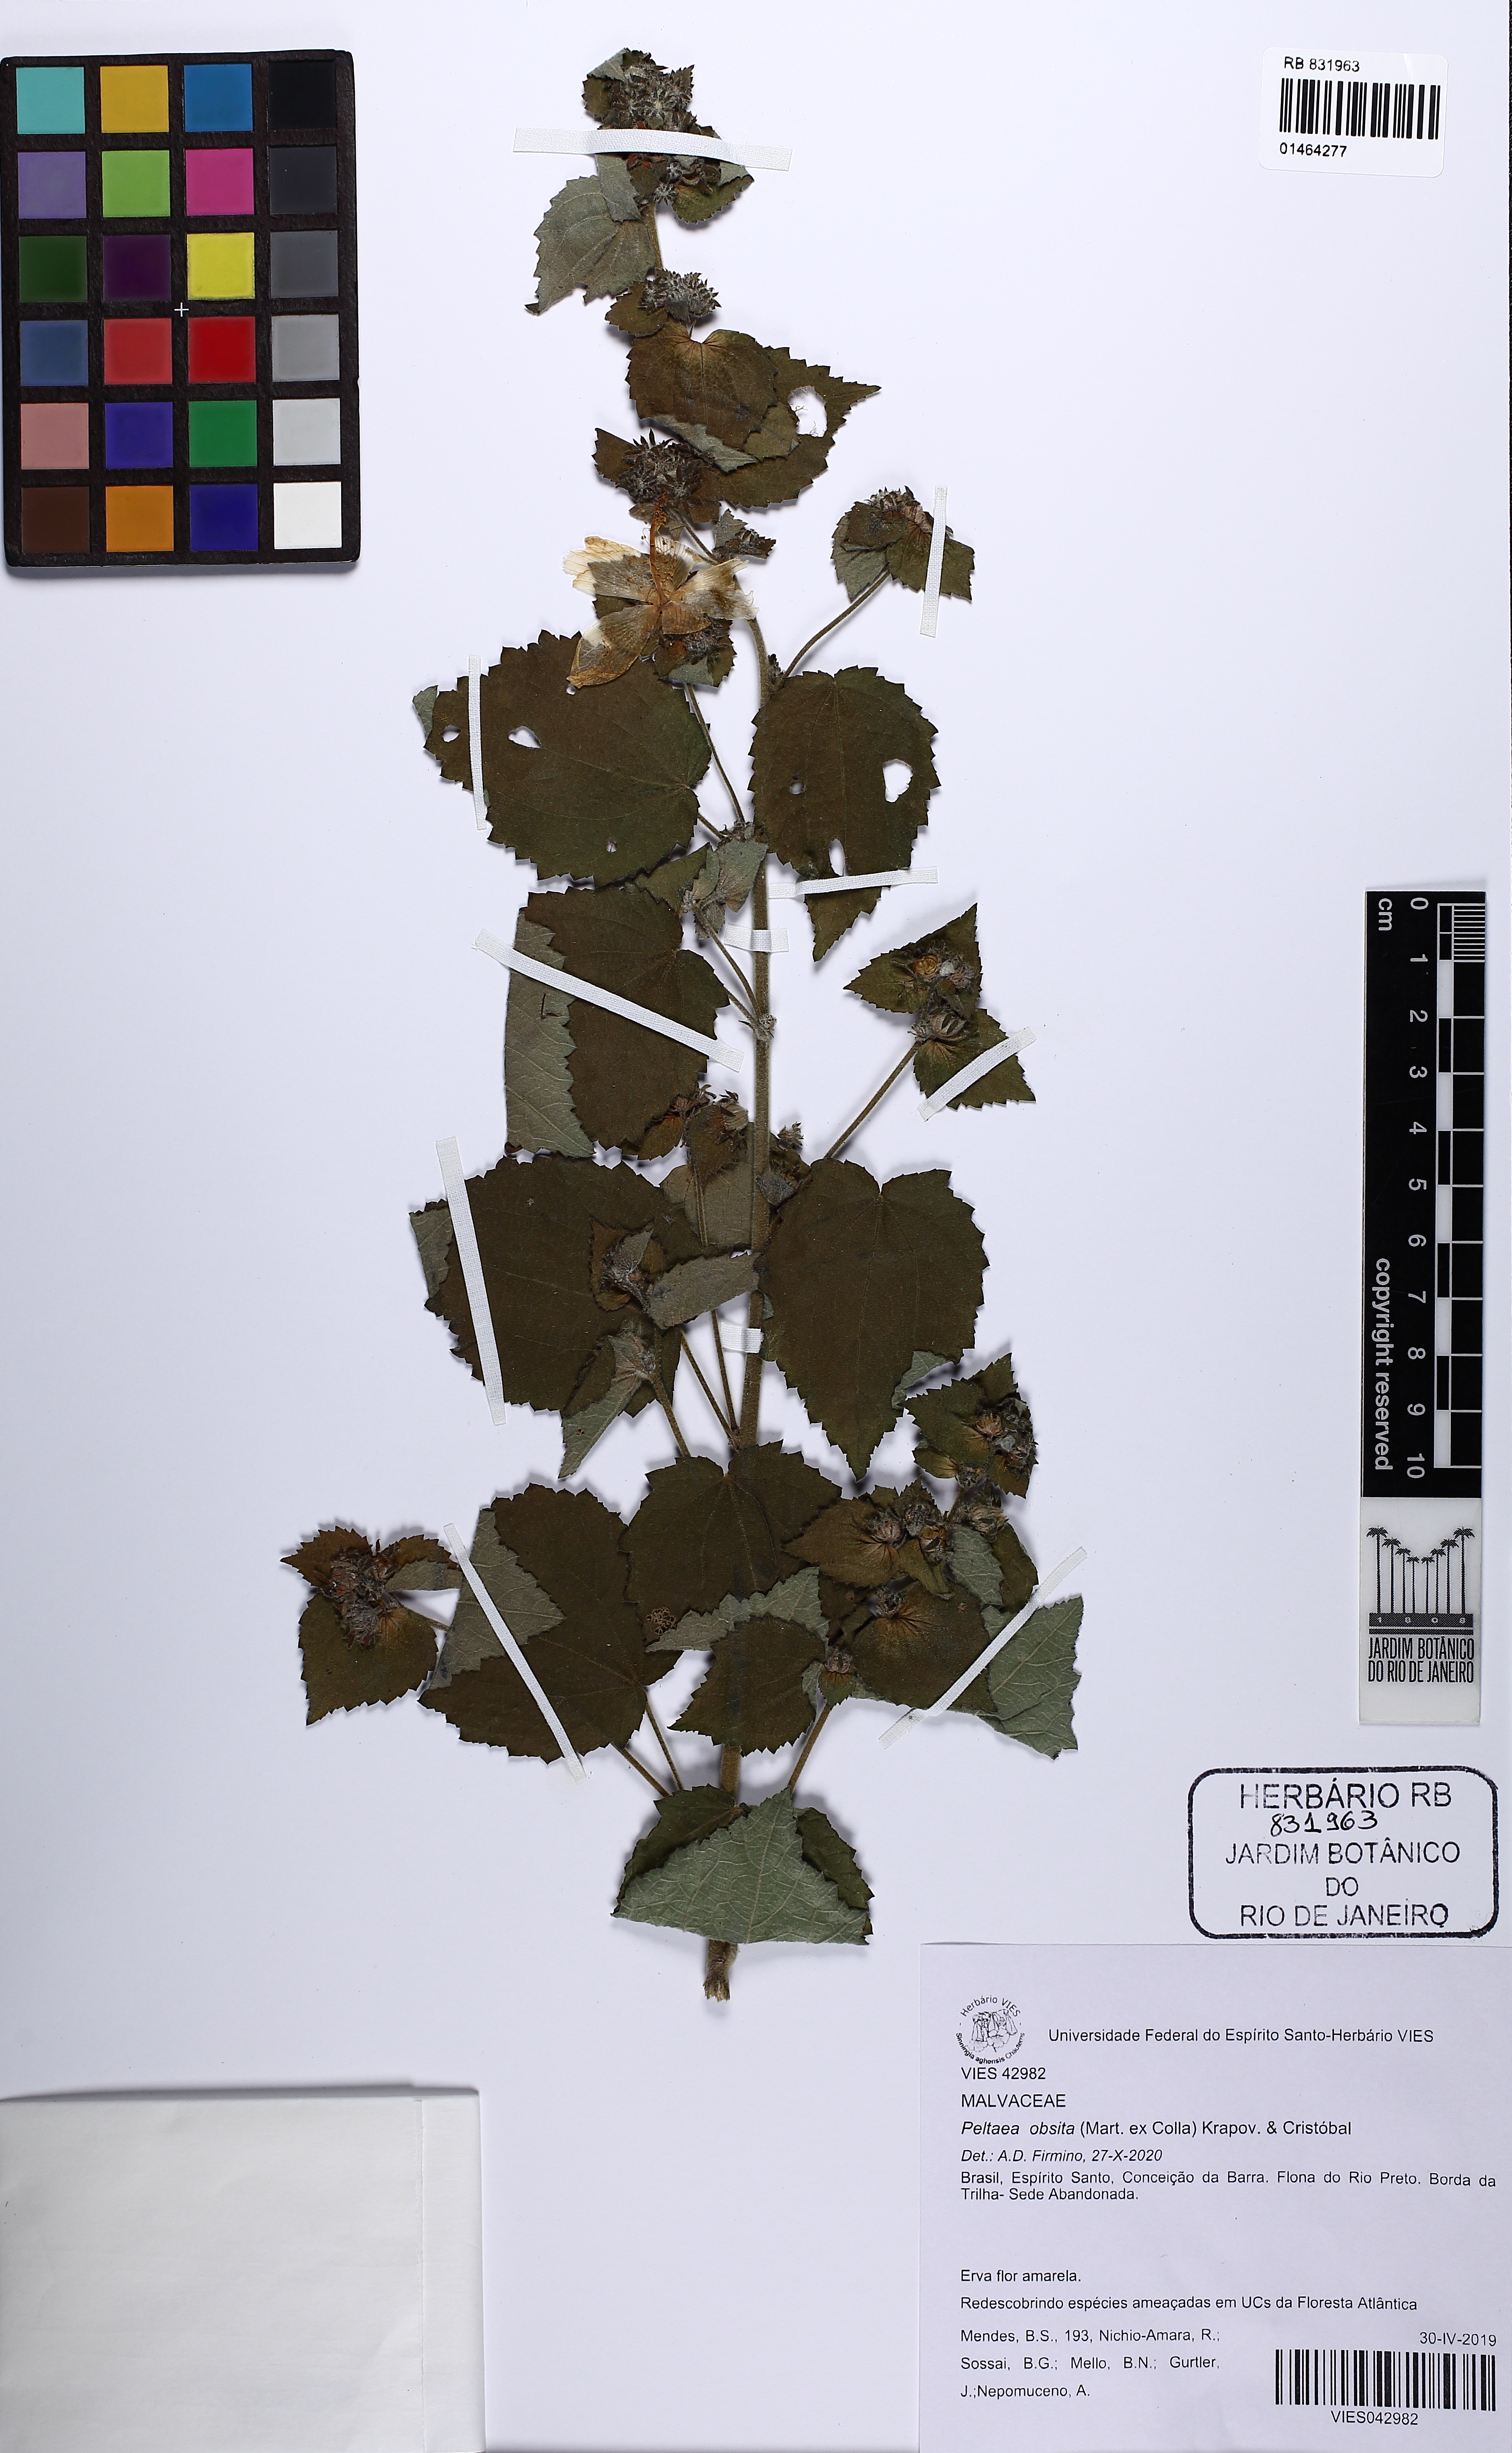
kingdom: Plantae
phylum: Tracheophyta
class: Magnoliopsida
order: Malvales
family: Malvaceae
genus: Peltaea
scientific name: Peltaea obsita
